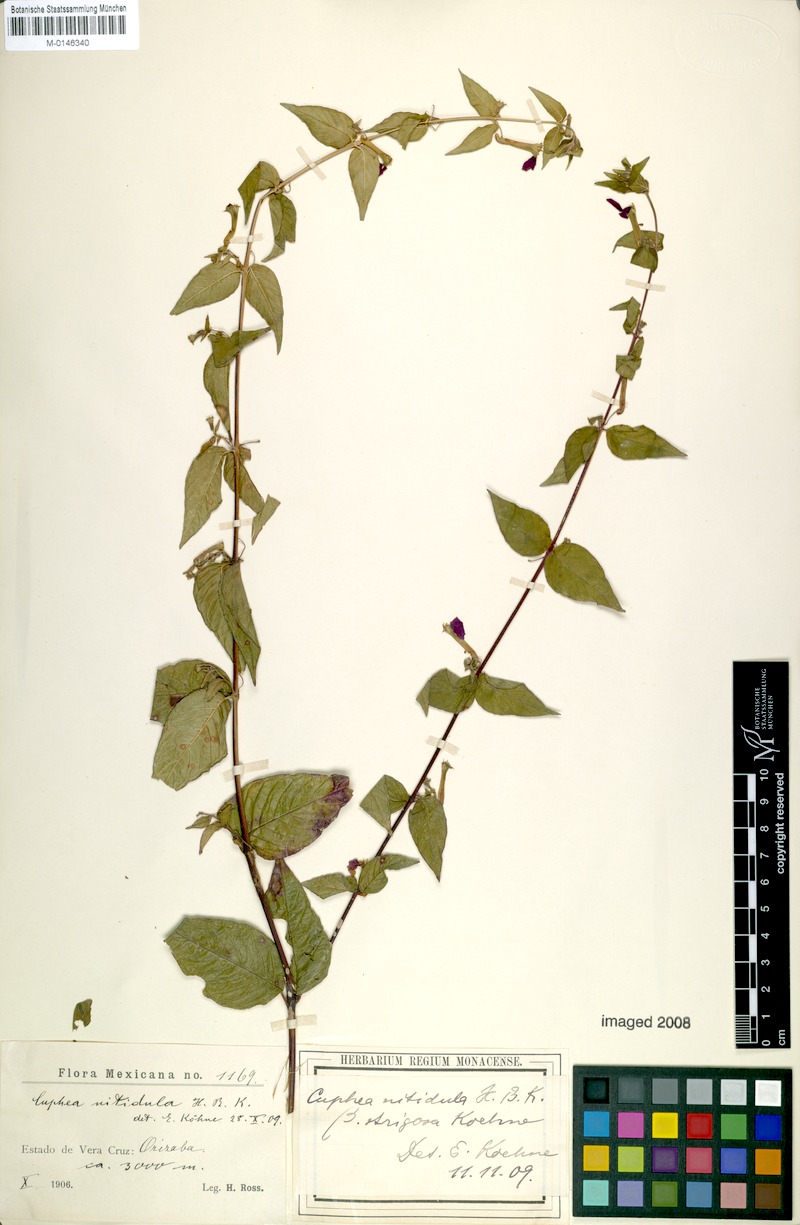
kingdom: Plantae
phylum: Tracheophyta
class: Magnoliopsida
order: Myrtales
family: Lythraceae
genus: Cuphea
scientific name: Cuphea nitidula
